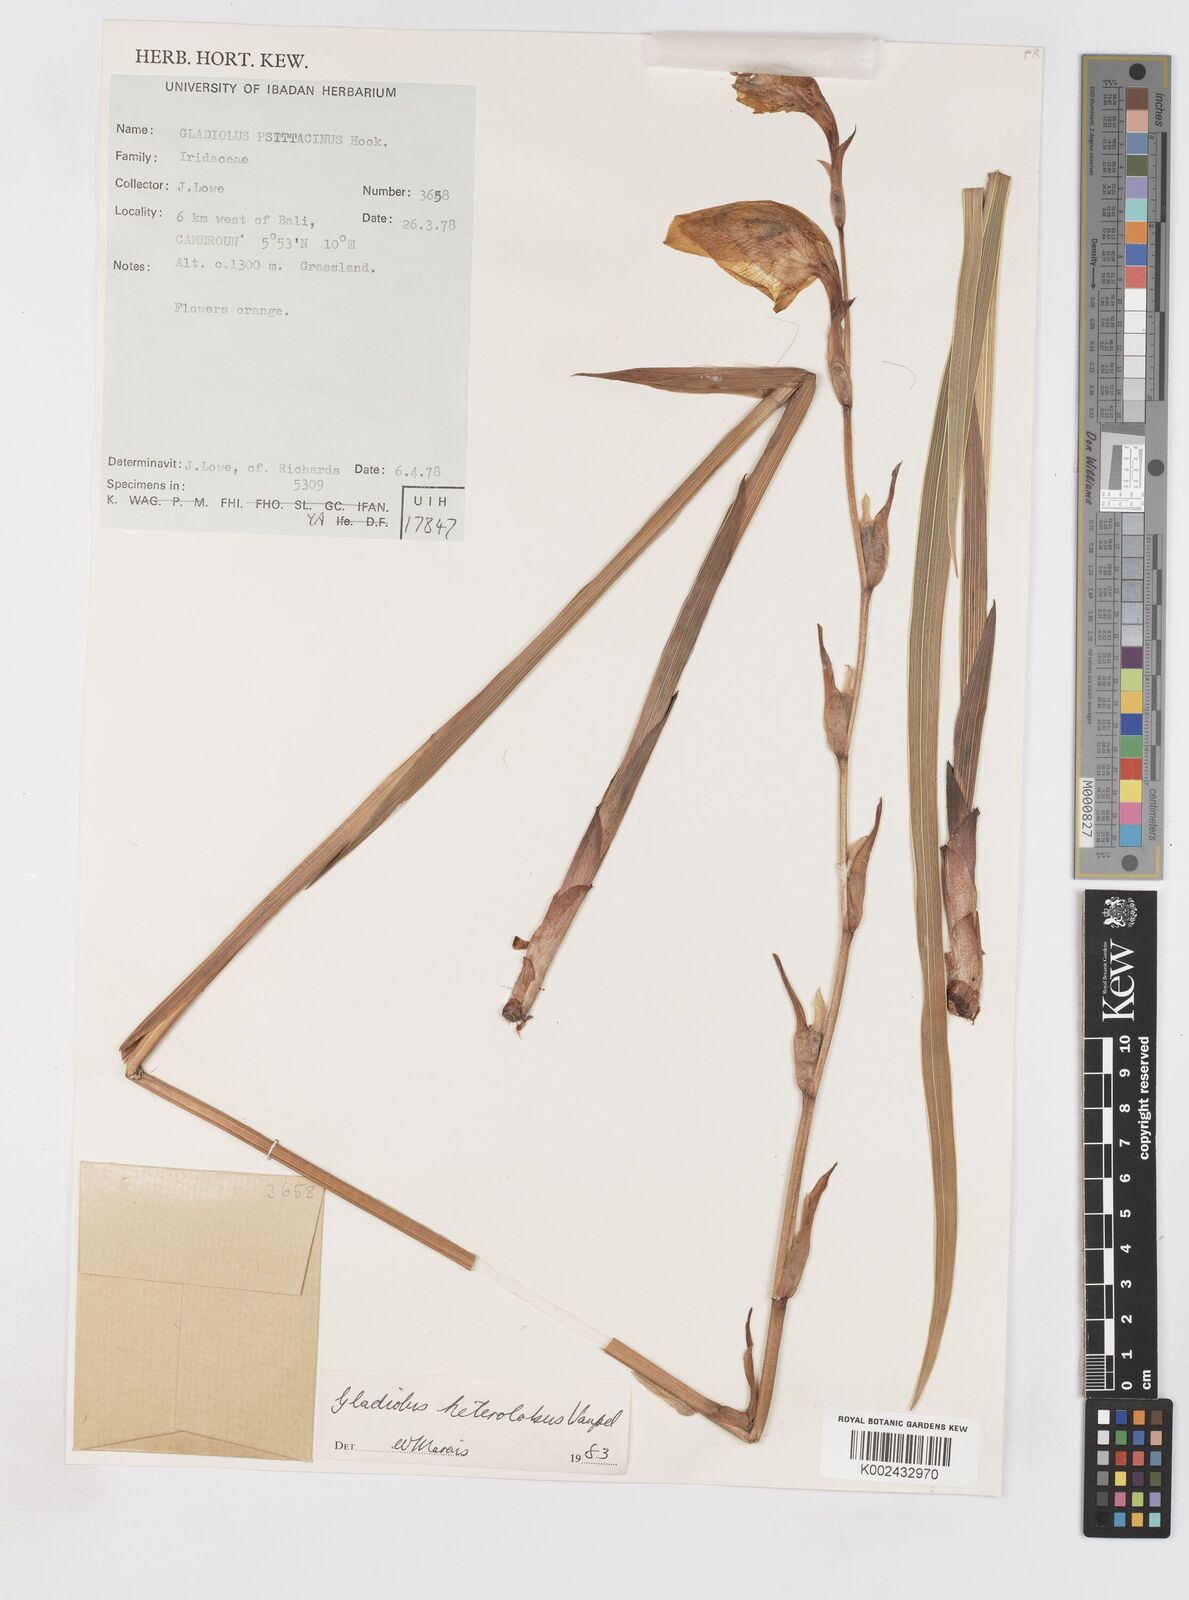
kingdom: Plantae
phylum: Tracheophyta
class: Liliopsida
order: Asparagales
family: Iridaceae
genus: Gladiolus
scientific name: Gladiolus roseolus
